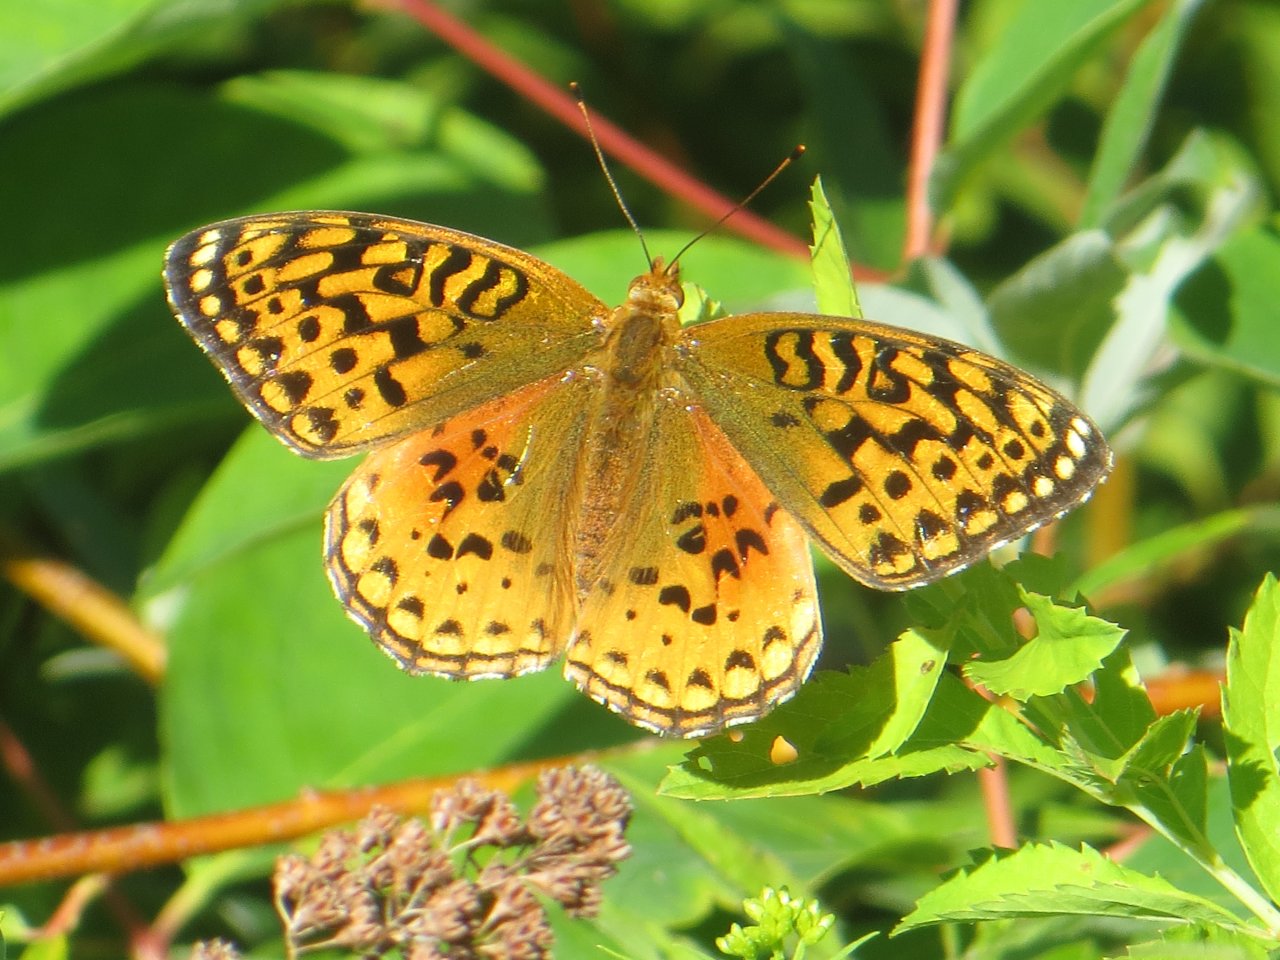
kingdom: Animalia
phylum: Arthropoda
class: Insecta
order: Lepidoptera
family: Nymphalidae
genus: Speyeria
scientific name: Speyeria aphrodite
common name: Aphrodite Fritillary
